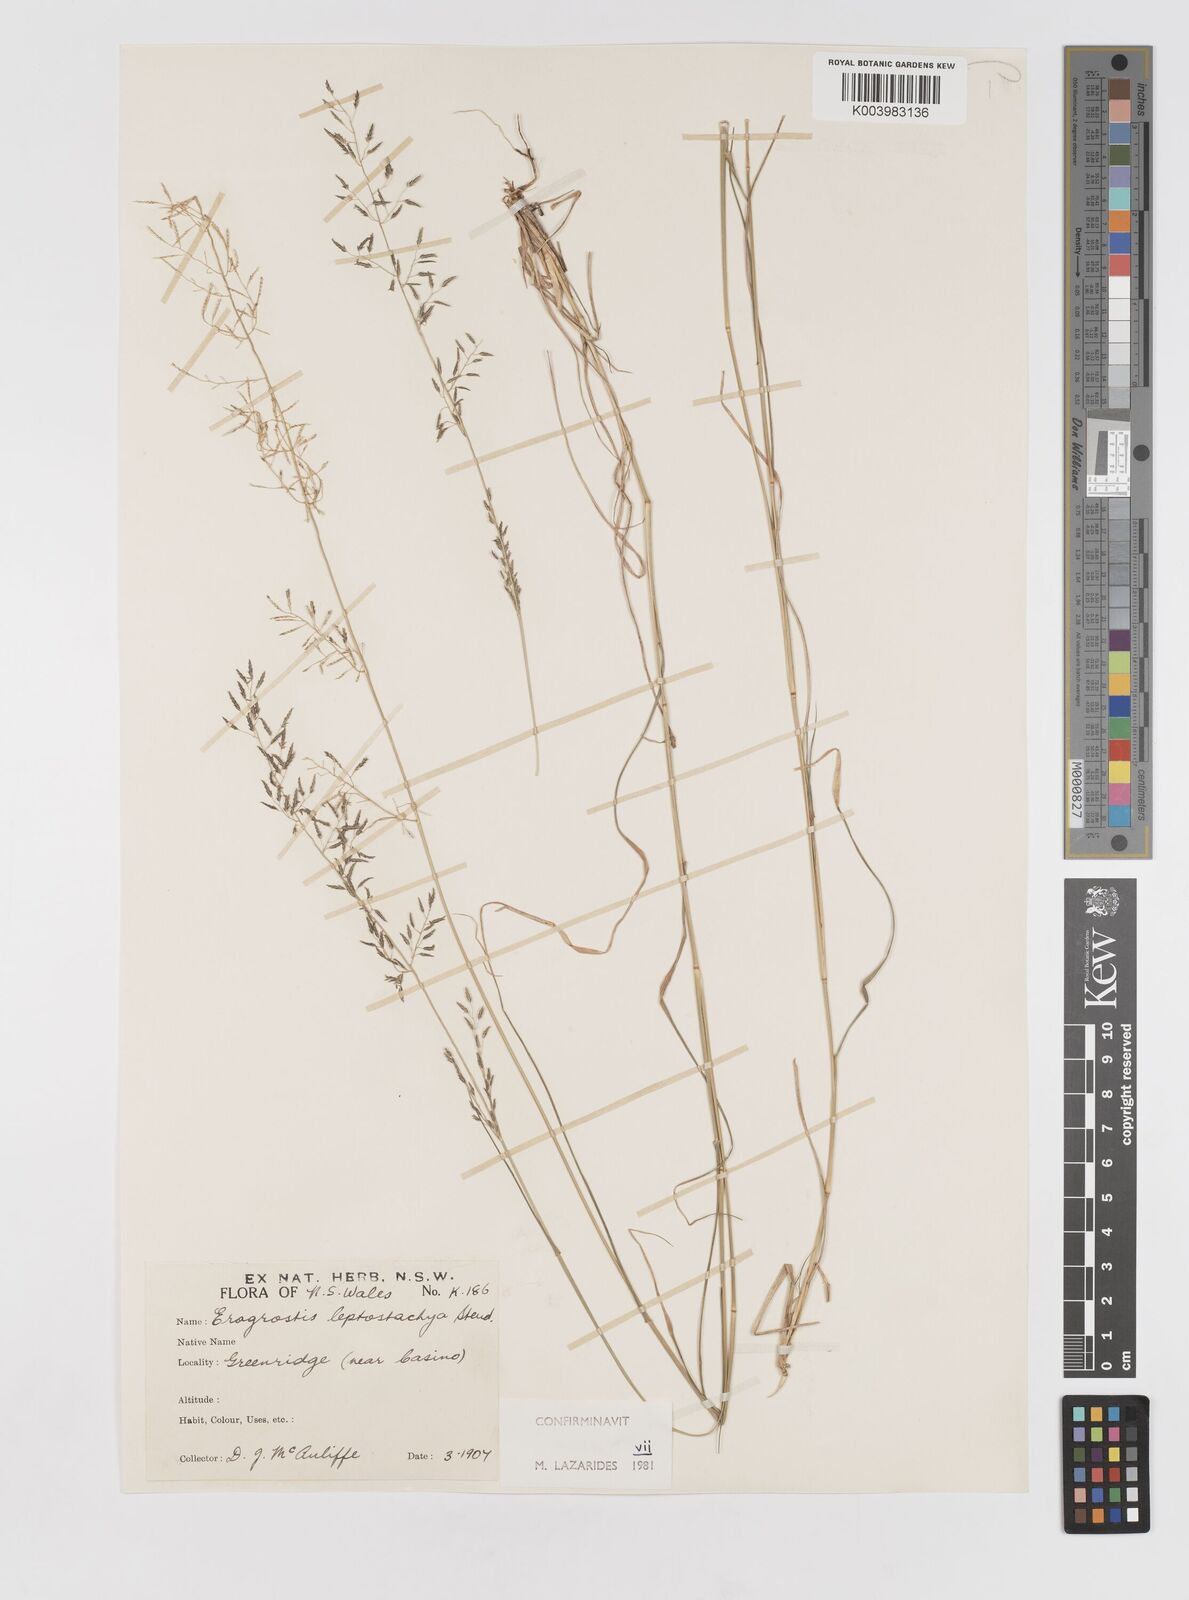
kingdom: Plantae
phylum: Tracheophyta
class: Liliopsida
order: Poales
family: Poaceae
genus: Eragrostis
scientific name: Eragrostis leptostachya
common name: Australian lovegrass
